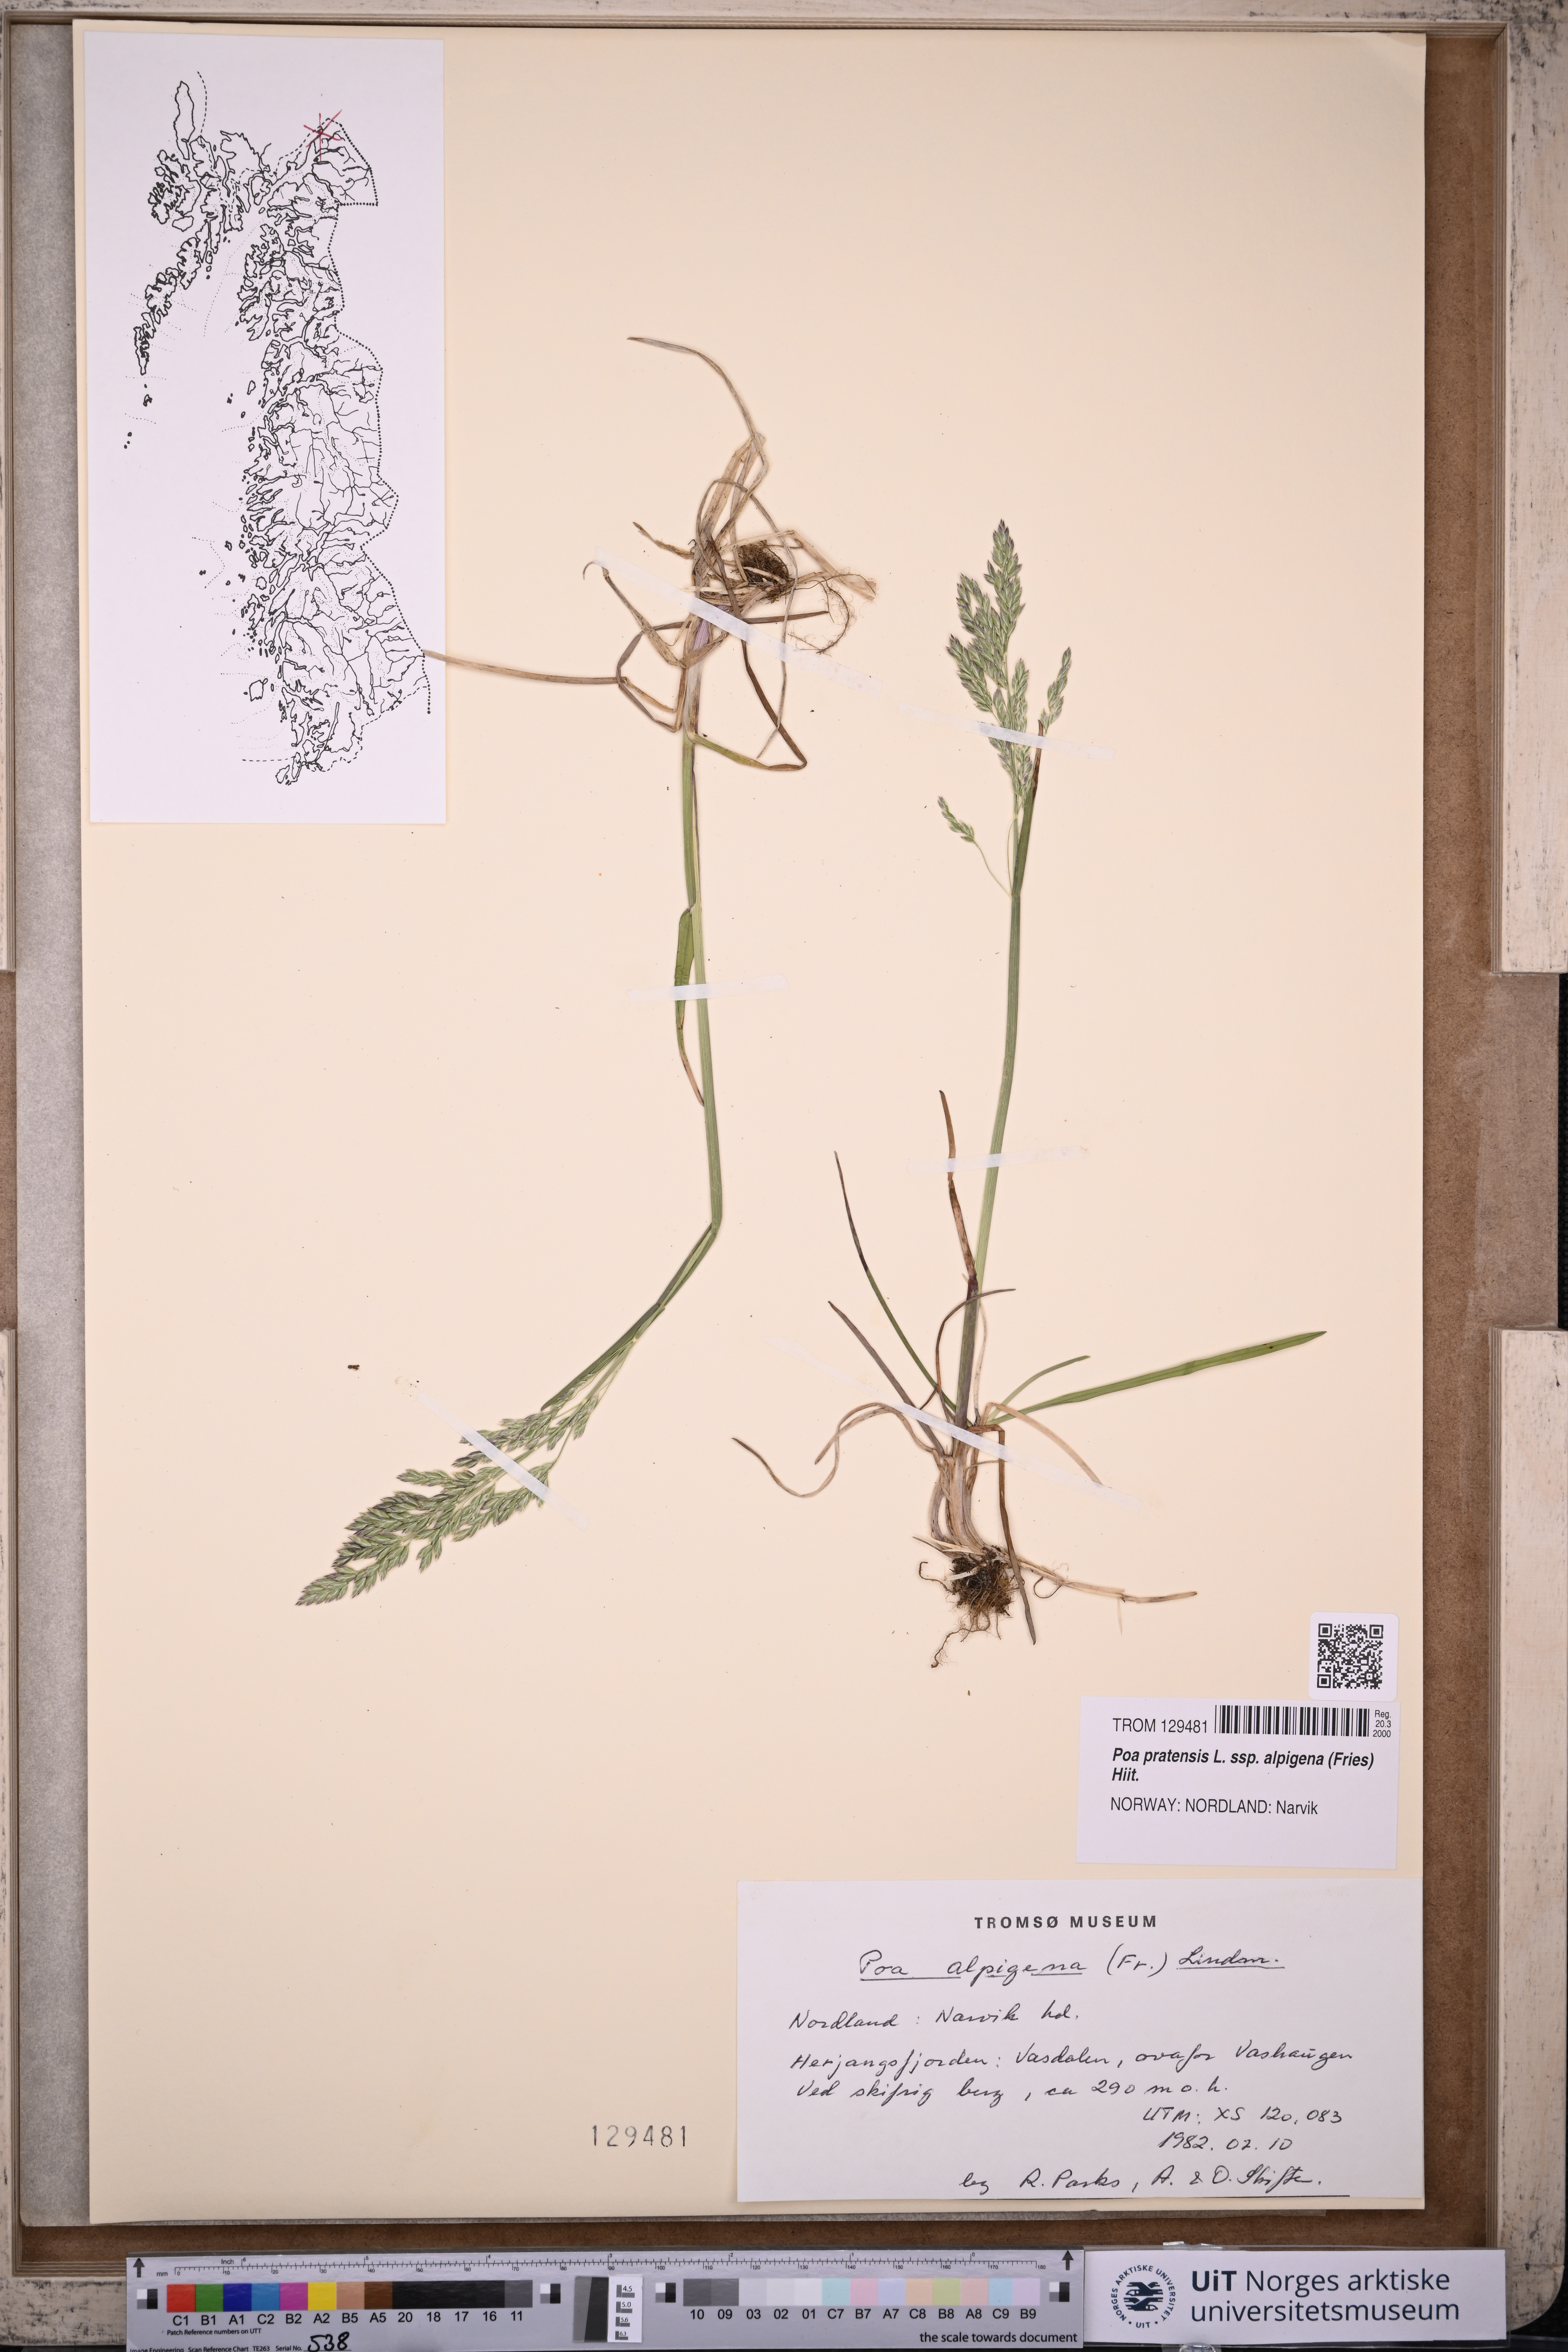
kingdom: Plantae
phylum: Tracheophyta
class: Liliopsida
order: Poales
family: Poaceae
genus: Poa
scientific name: Poa alpigena
